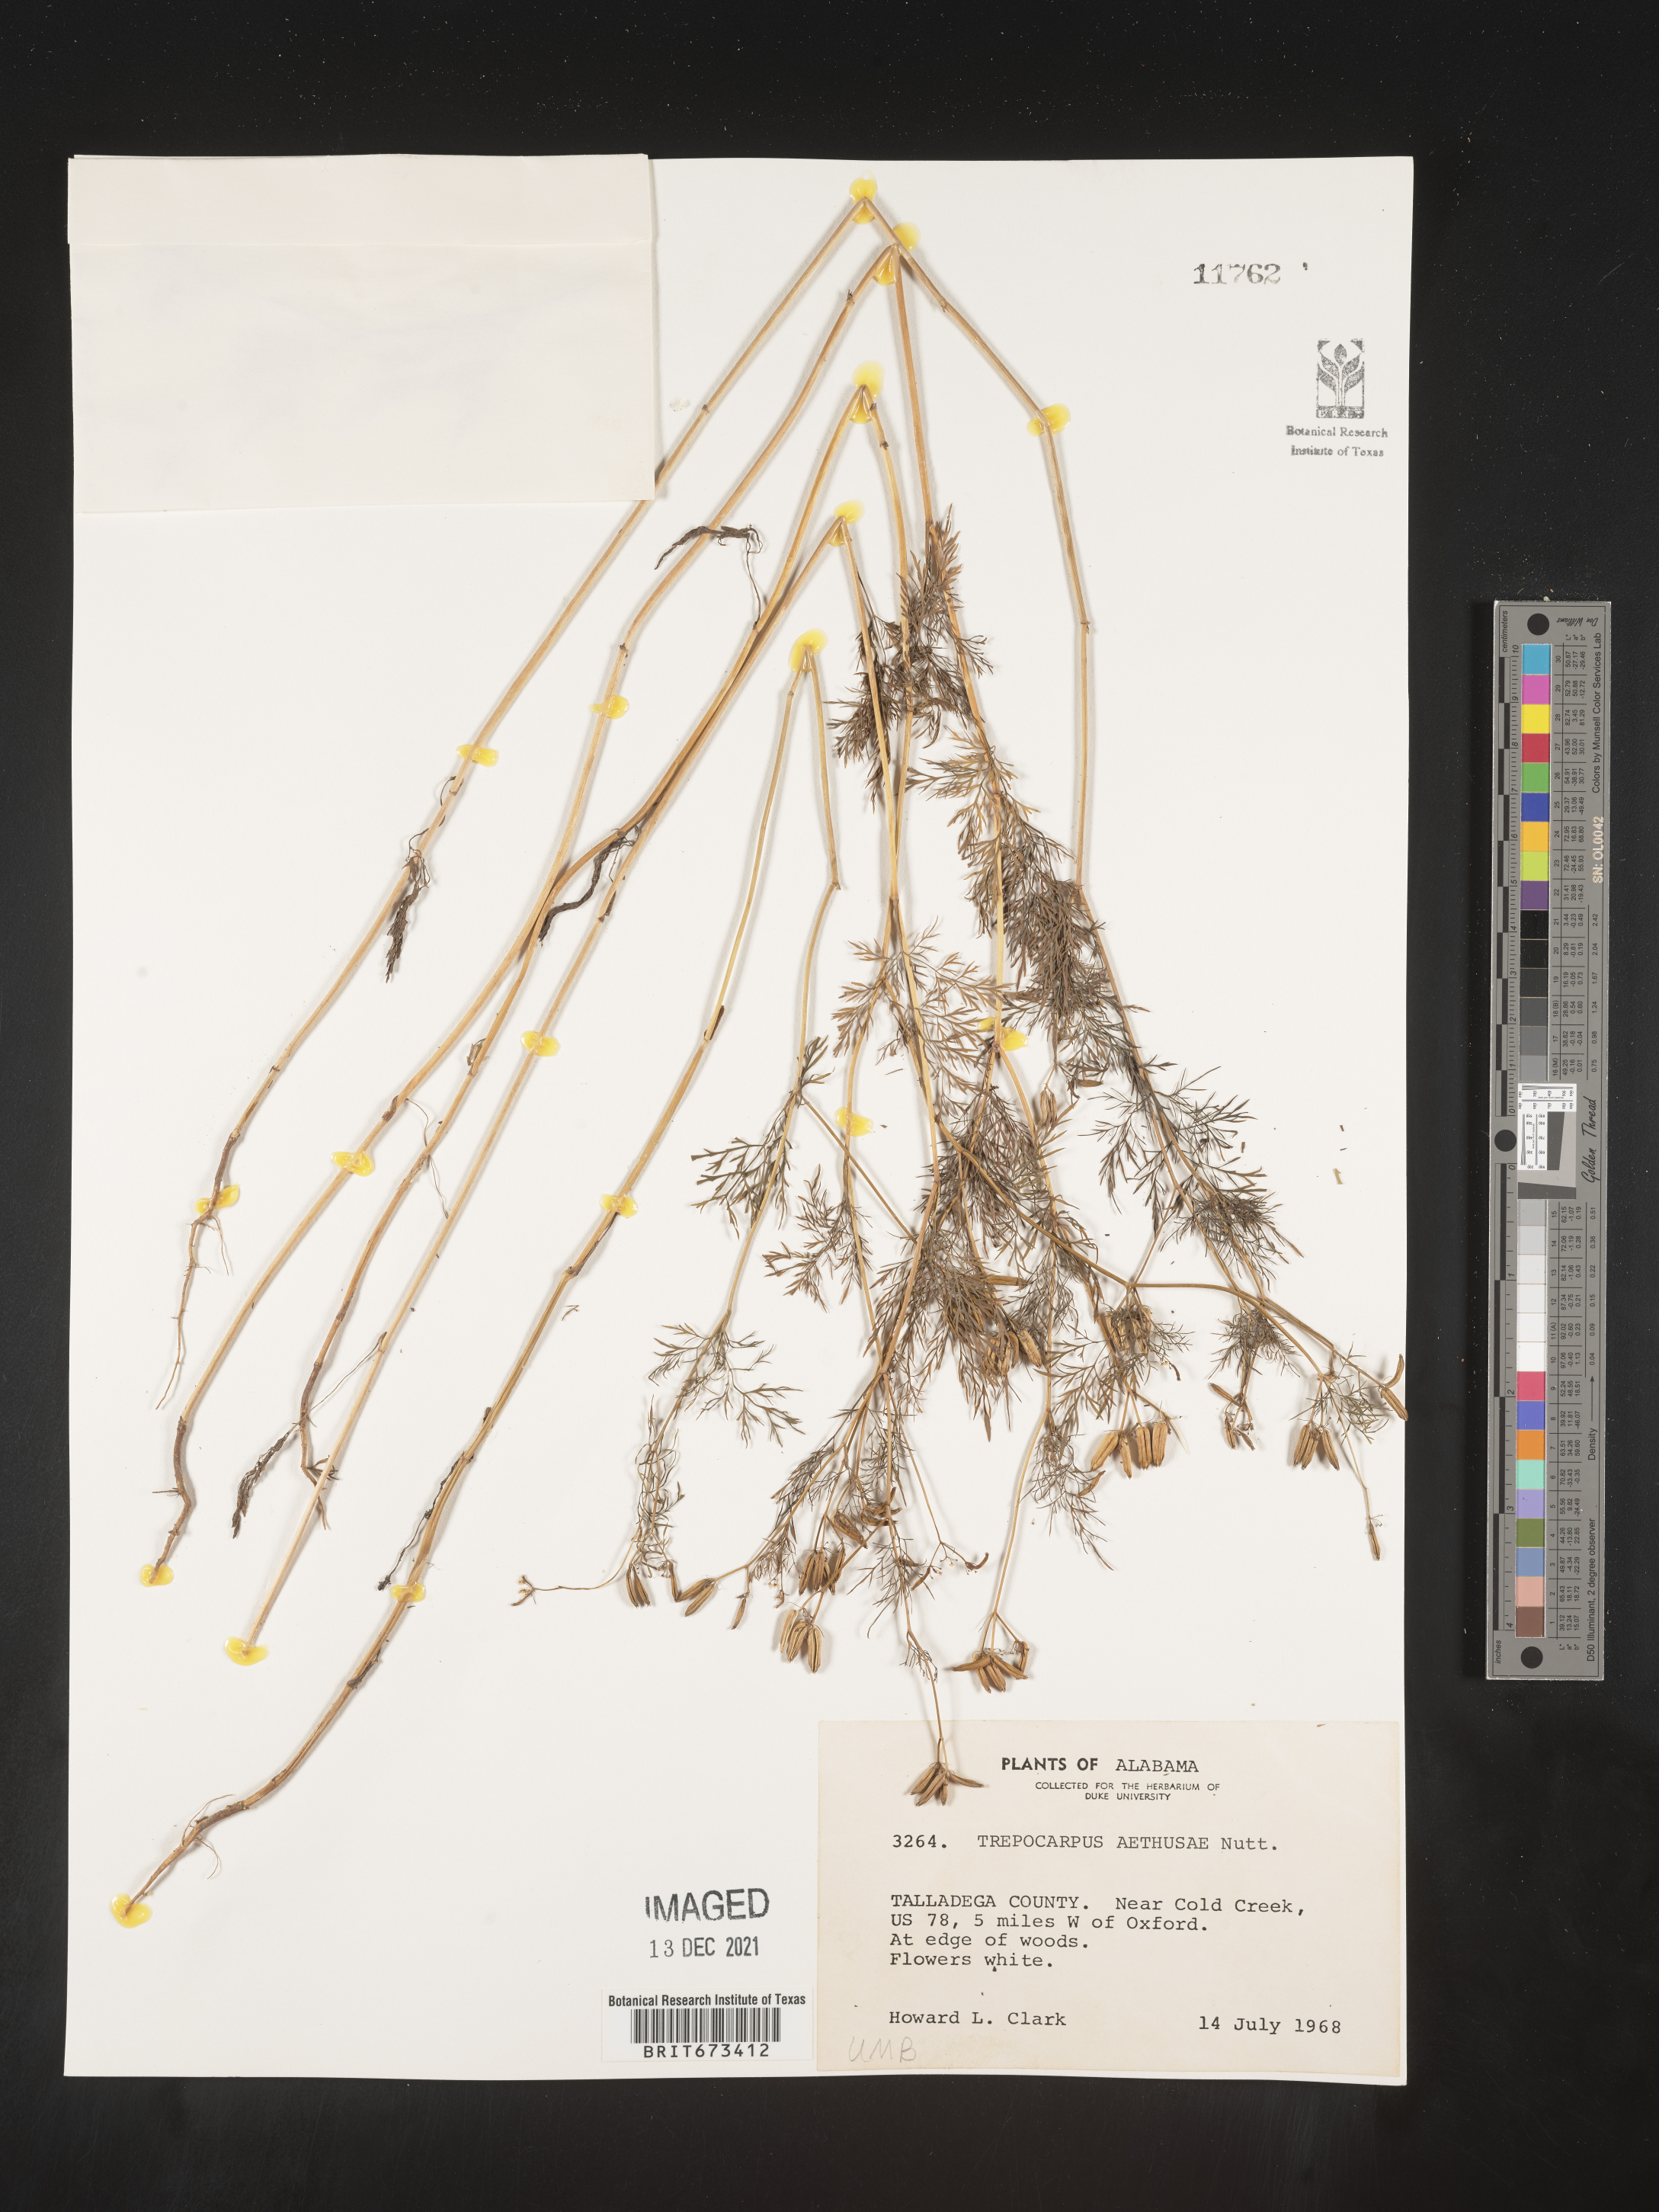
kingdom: Plantae
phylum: Tracheophyta
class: Magnoliopsida
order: Apiales
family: Apiaceae
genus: Trepocarpus
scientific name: Trepocarpus aethusae
